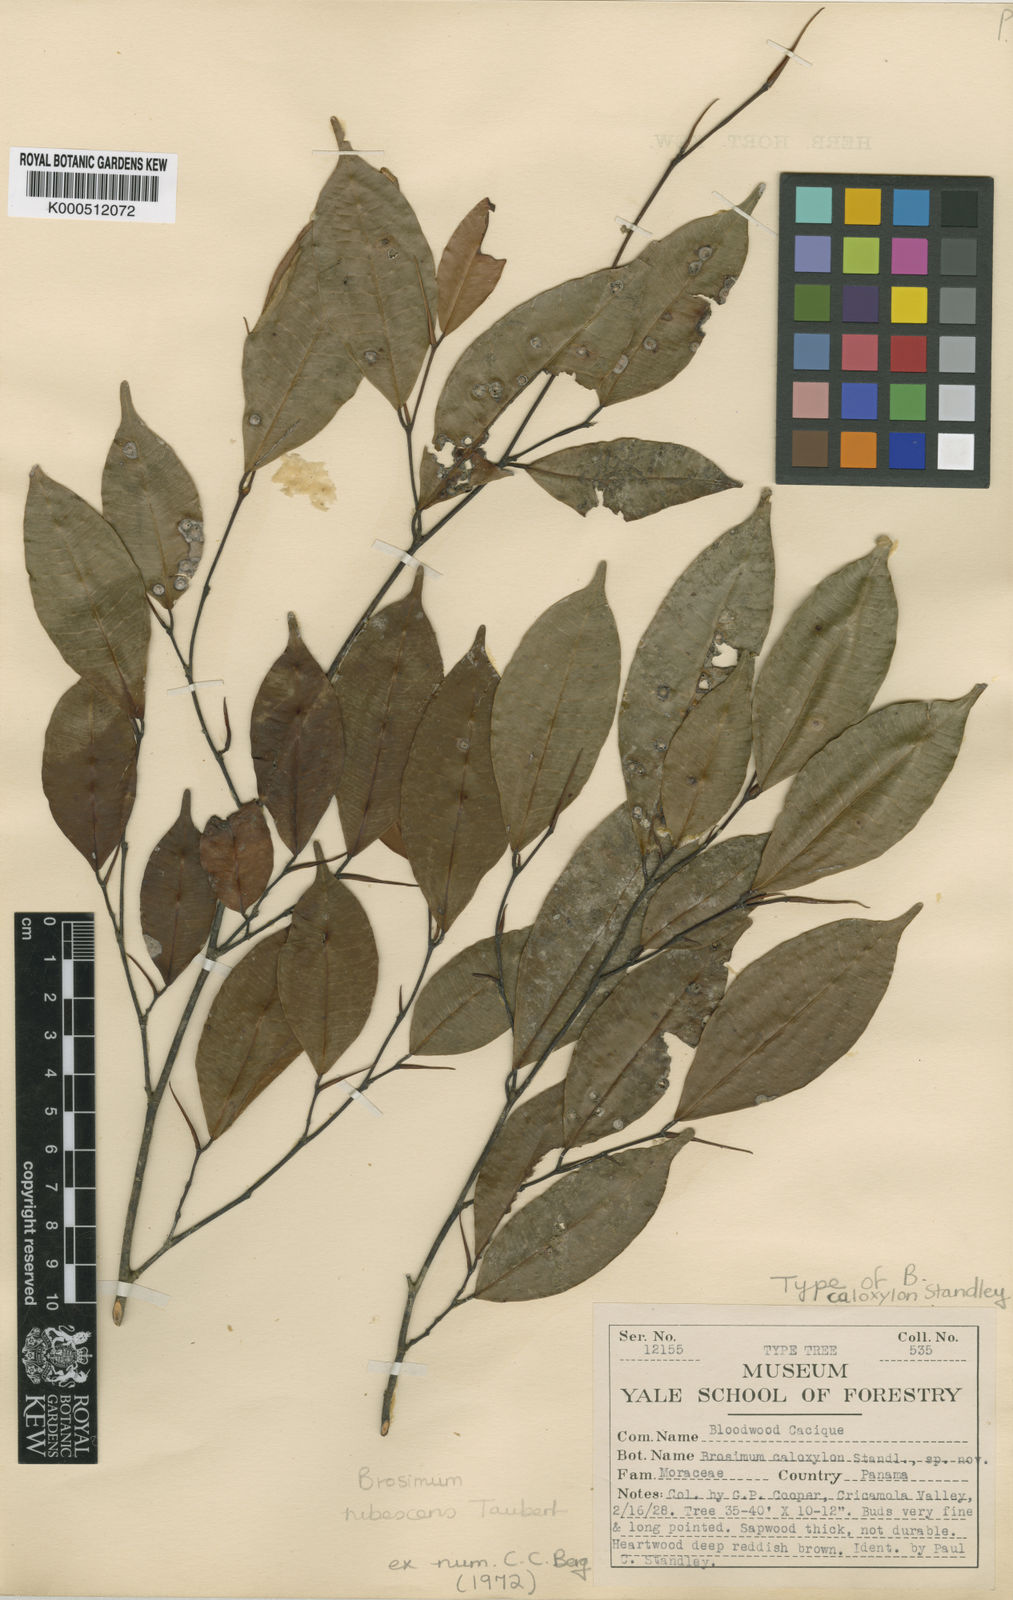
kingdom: Plantae
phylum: Tracheophyta
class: Magnoliopsida
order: Rosales
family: Moraceae
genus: Brosimum
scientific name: Brosimum rubescens
